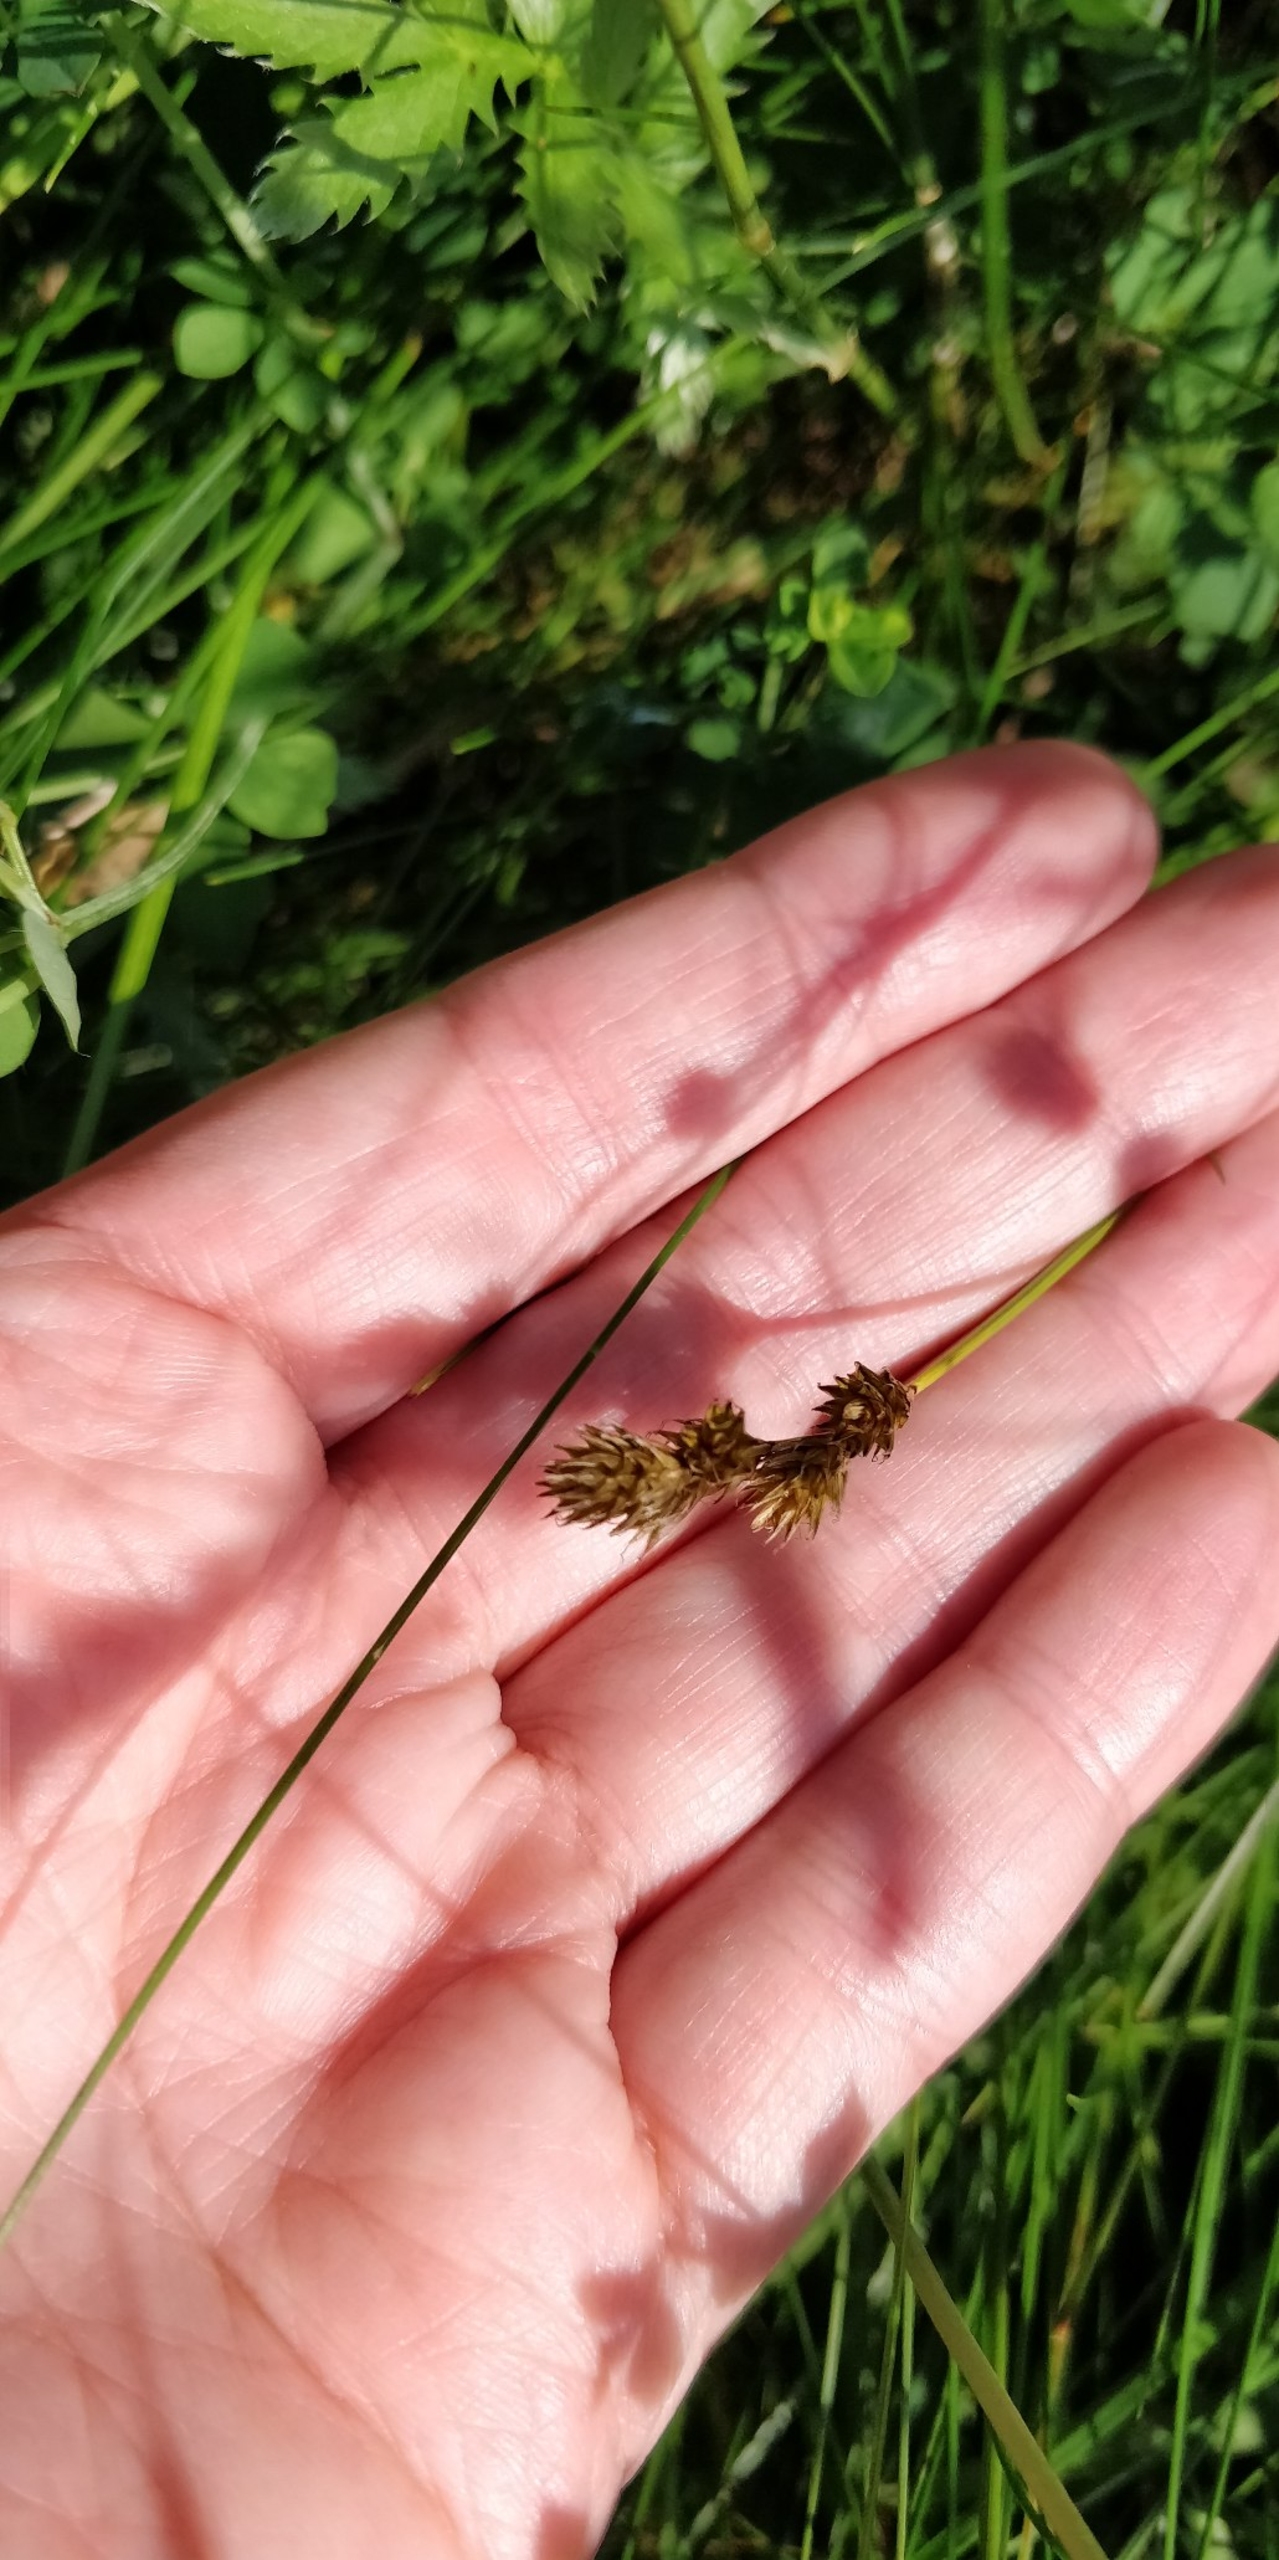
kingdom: Plantae
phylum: Tracheophyta
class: Liliopsida
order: Poales
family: Cyperaceae
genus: Carex
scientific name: Carex leporina
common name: Hare-star
